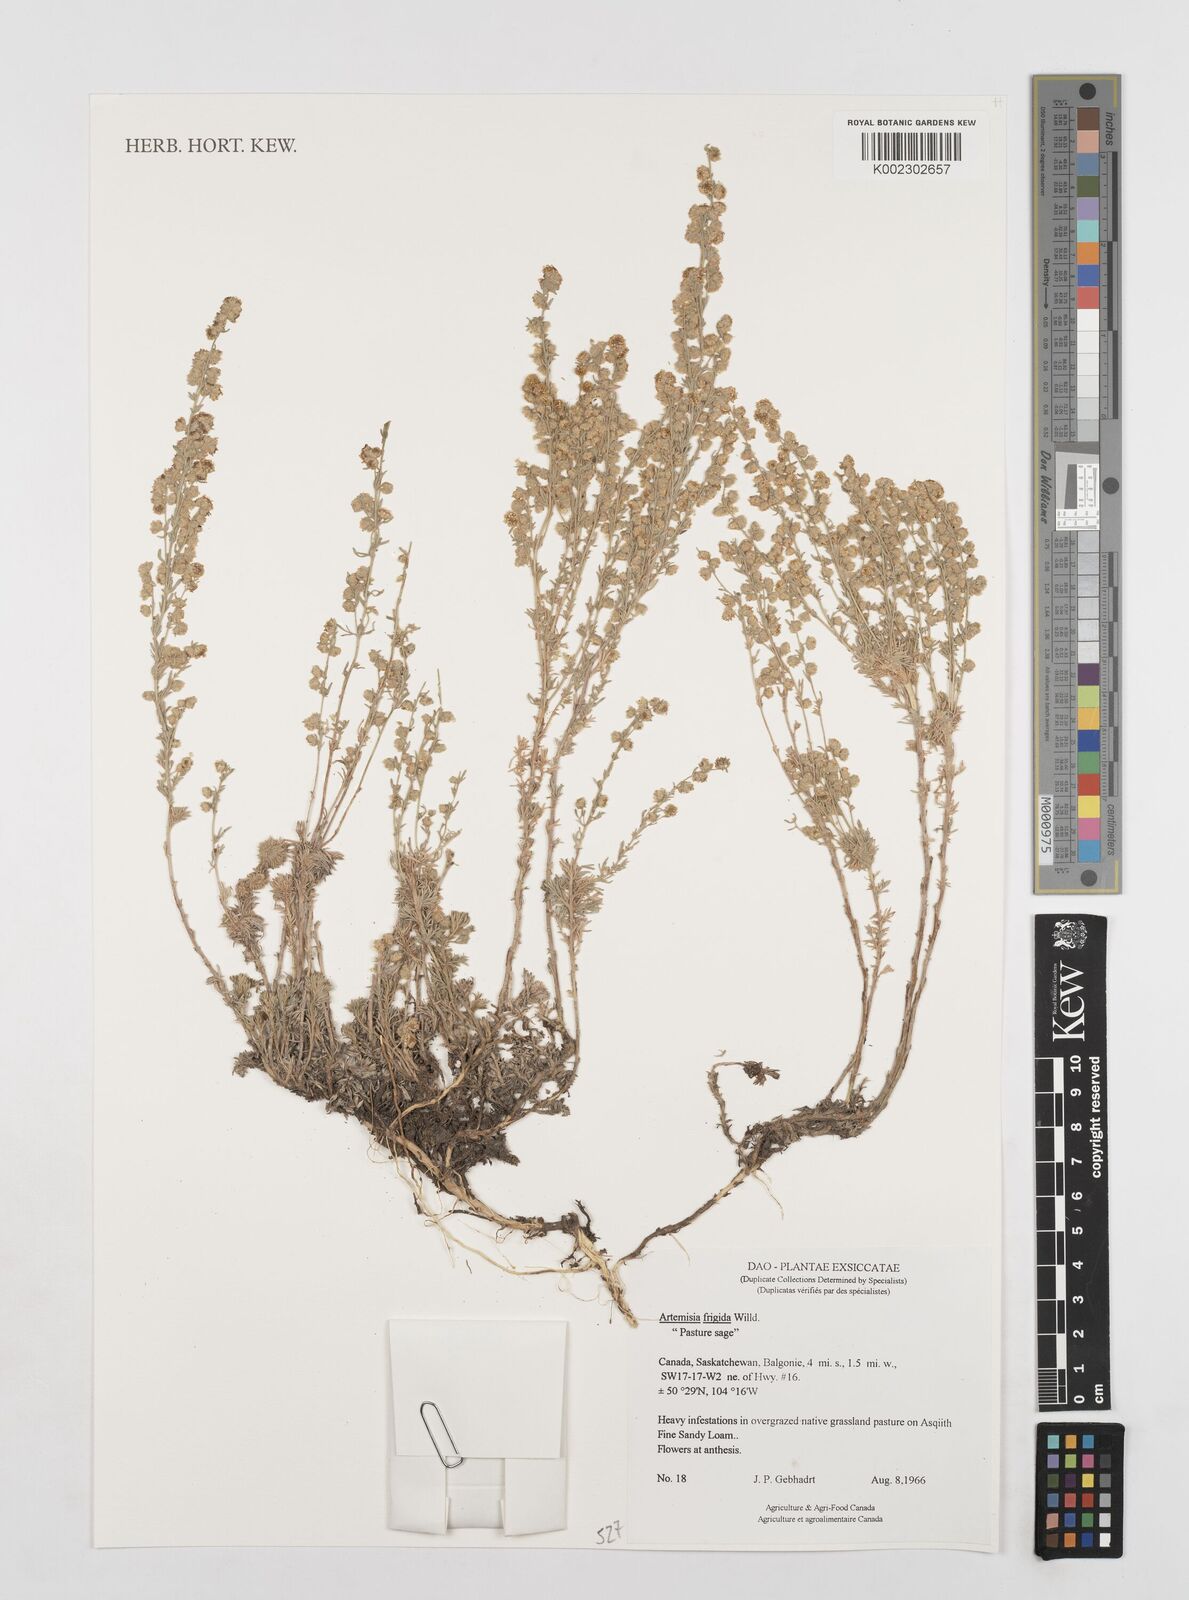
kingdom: Plantae
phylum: Tracheophyta
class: Magnoliopsida
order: Asterales
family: Asteraceae
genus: Artemisia
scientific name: Artemisia absinthium
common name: Wormwood
